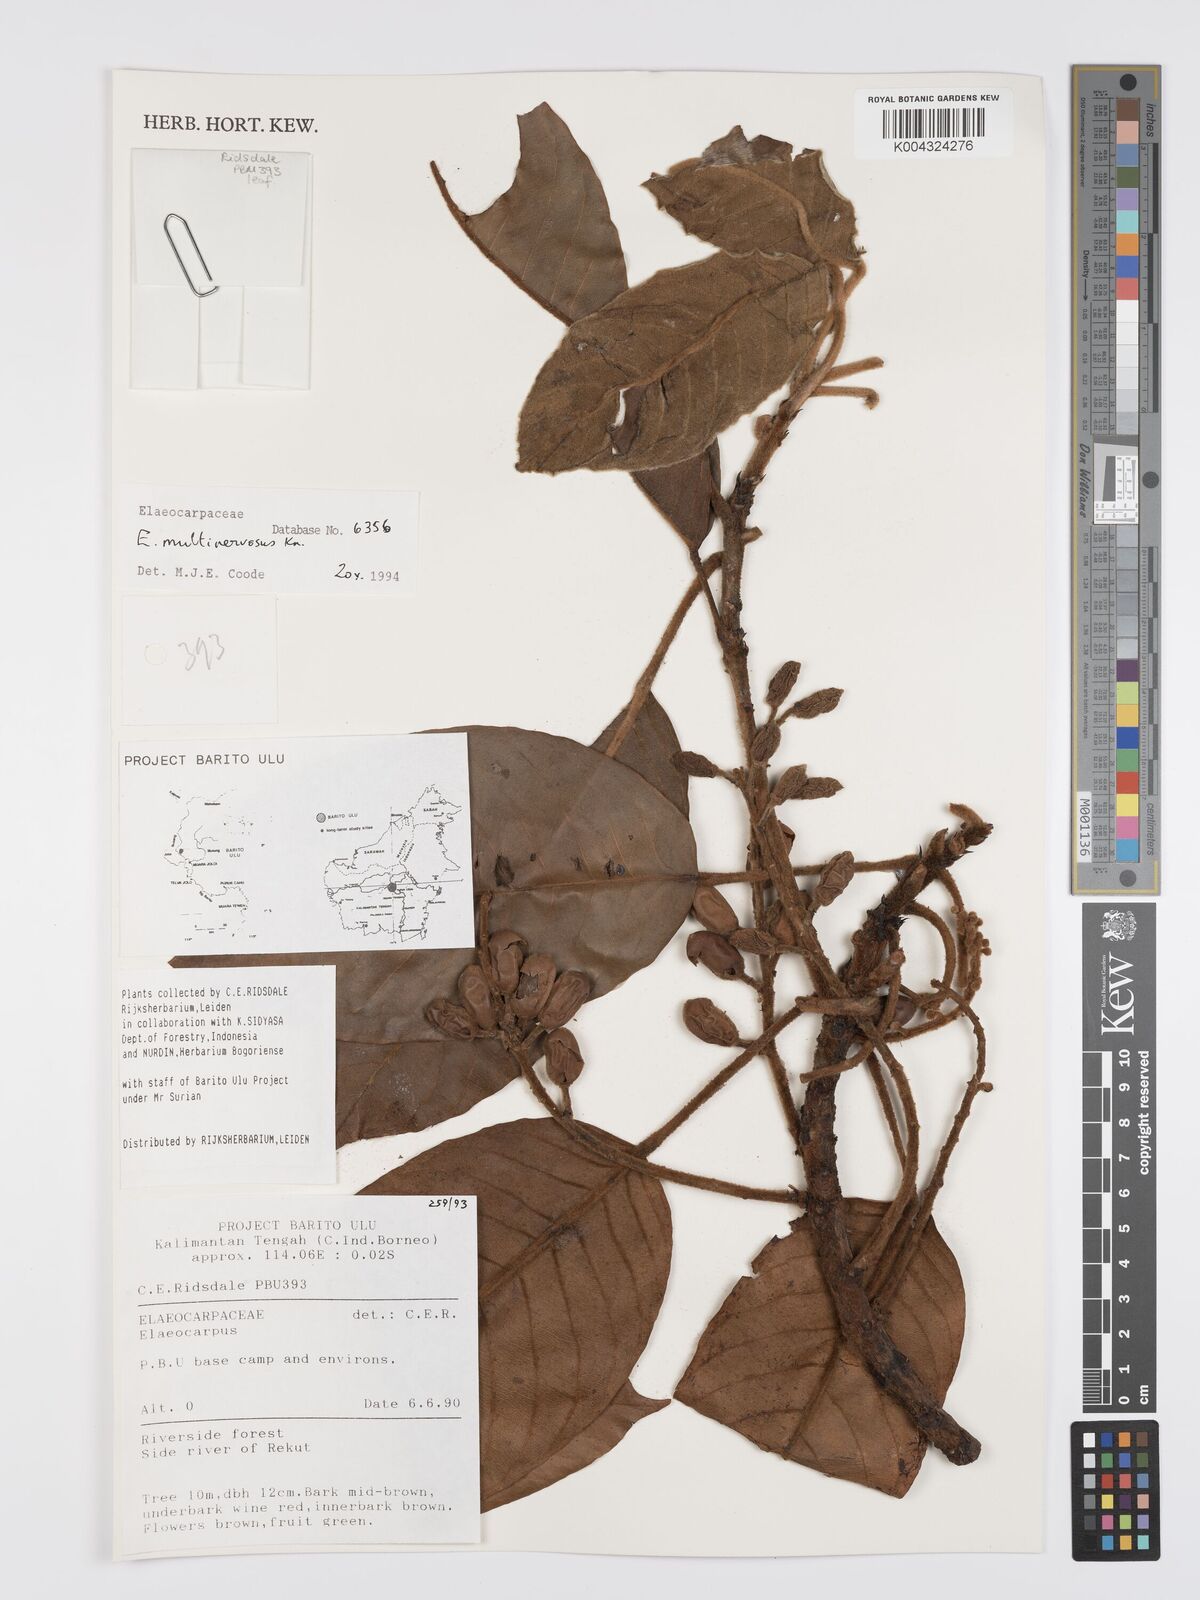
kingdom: Plantae
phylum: Tracheophyta
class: Magnoliopsida
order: Oxalidales
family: Elaeocarpaceae
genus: Elaeocarpus
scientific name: Elaeocarpus multinervosus
